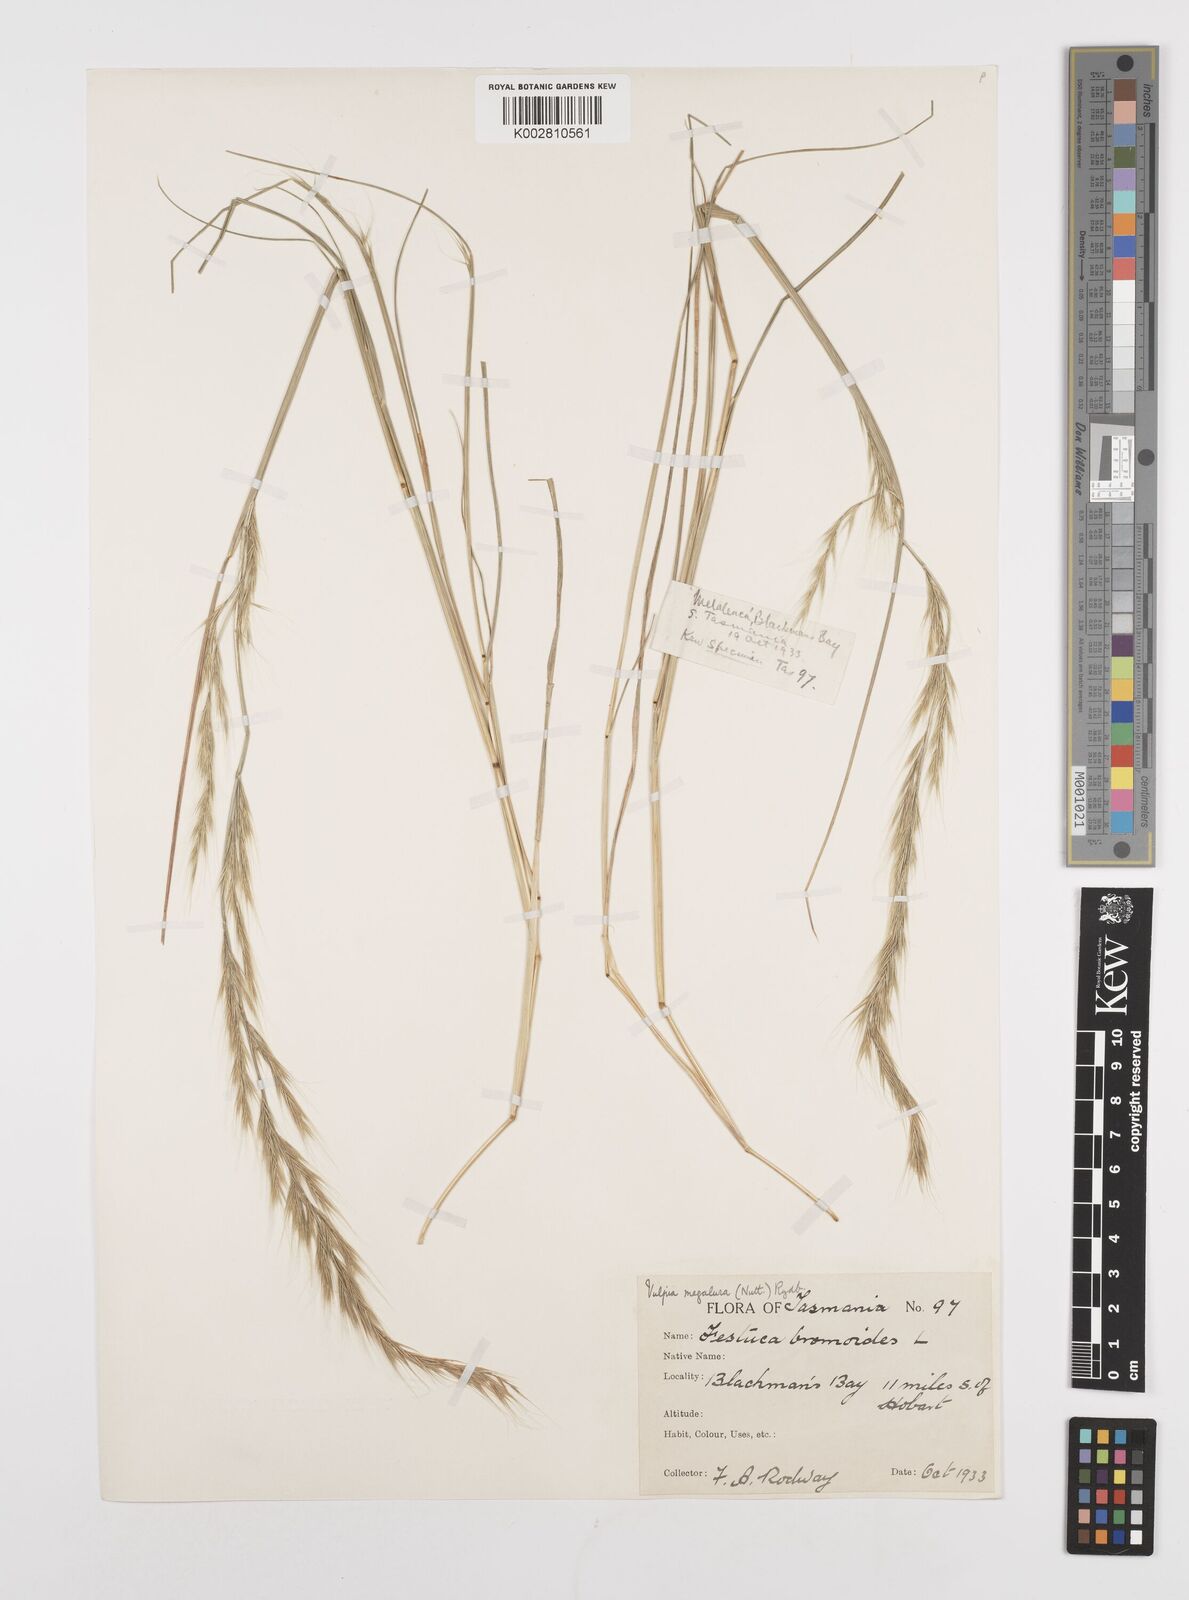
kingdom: Plantae
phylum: Tracheophyta
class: Liliopsida
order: Poales
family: Poaceae
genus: Festuca
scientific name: Festuca myuros
